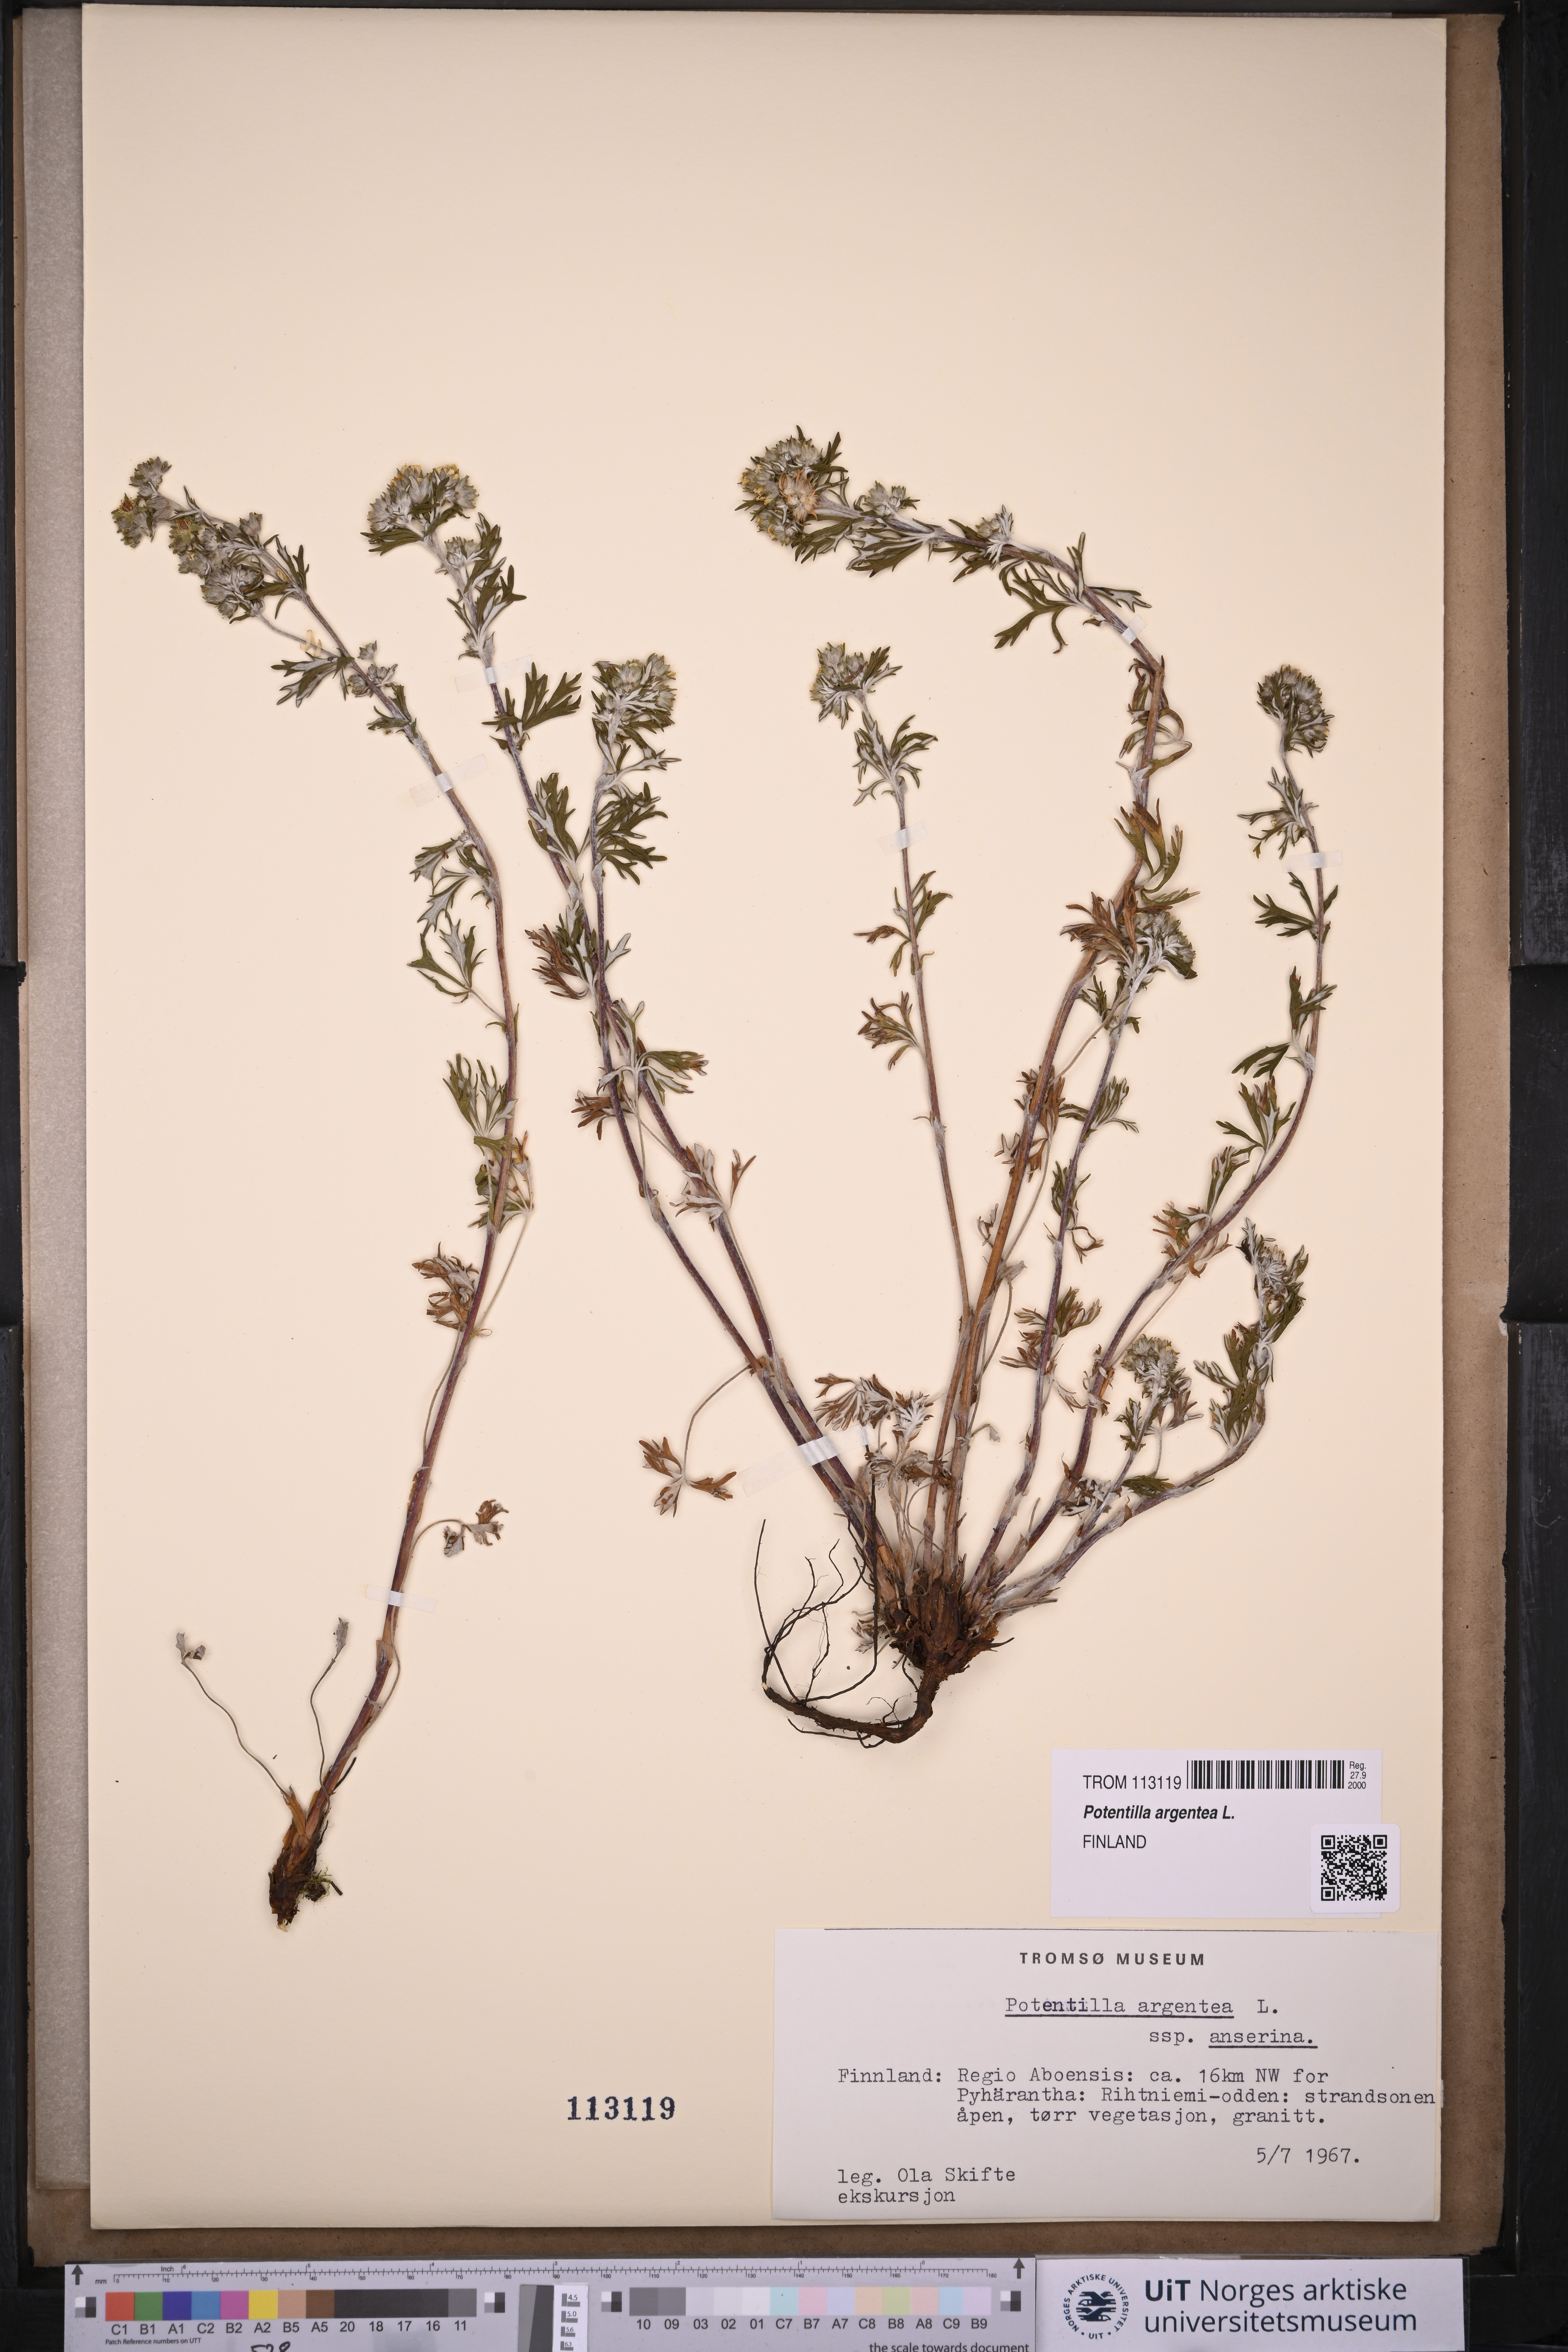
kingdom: Plantae
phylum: Tracheophyta
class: Magnoliopsida
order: Rosales
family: Rosaceae
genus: Potentilla
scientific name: Potentilla argentea
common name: Hoary cinquefoil
